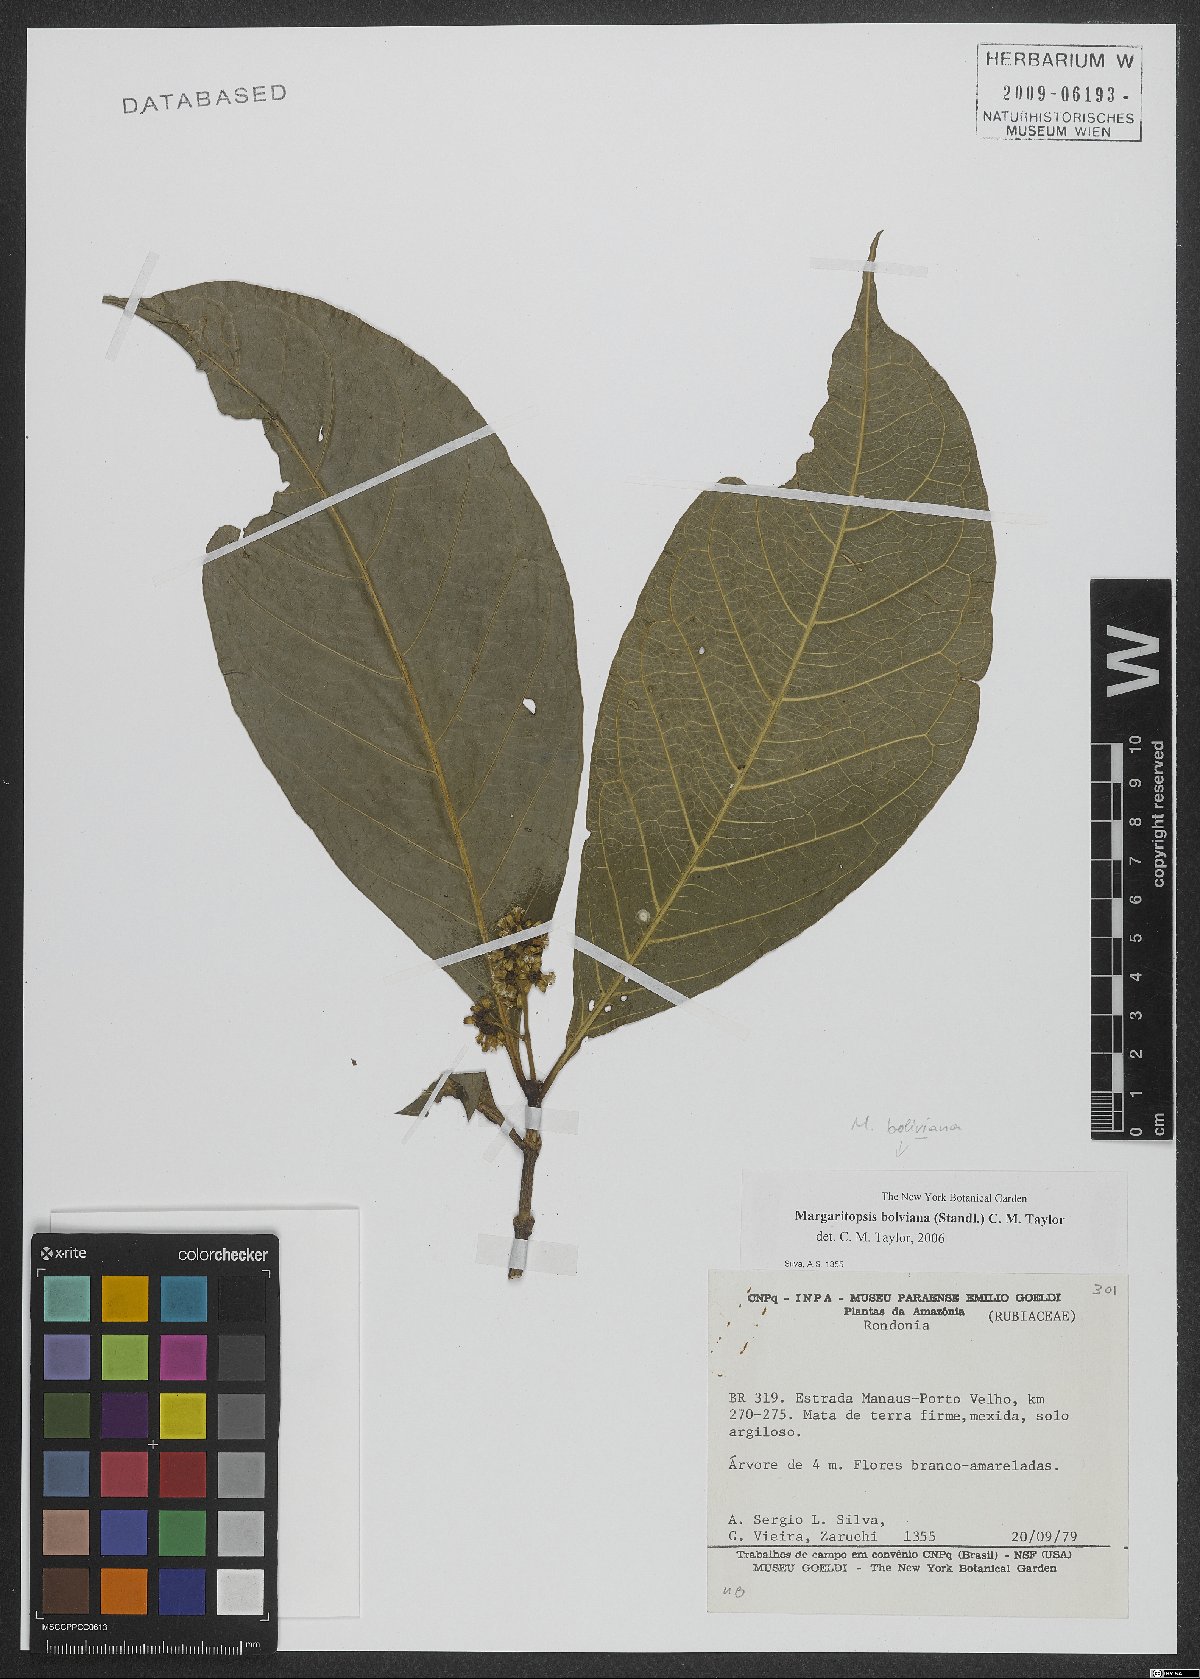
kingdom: Plantae
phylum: Tracheophyta
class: Magnoliopsida
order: Gentianales
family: Rubiaceae
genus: Eumachia
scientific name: Eumachia boliviana
